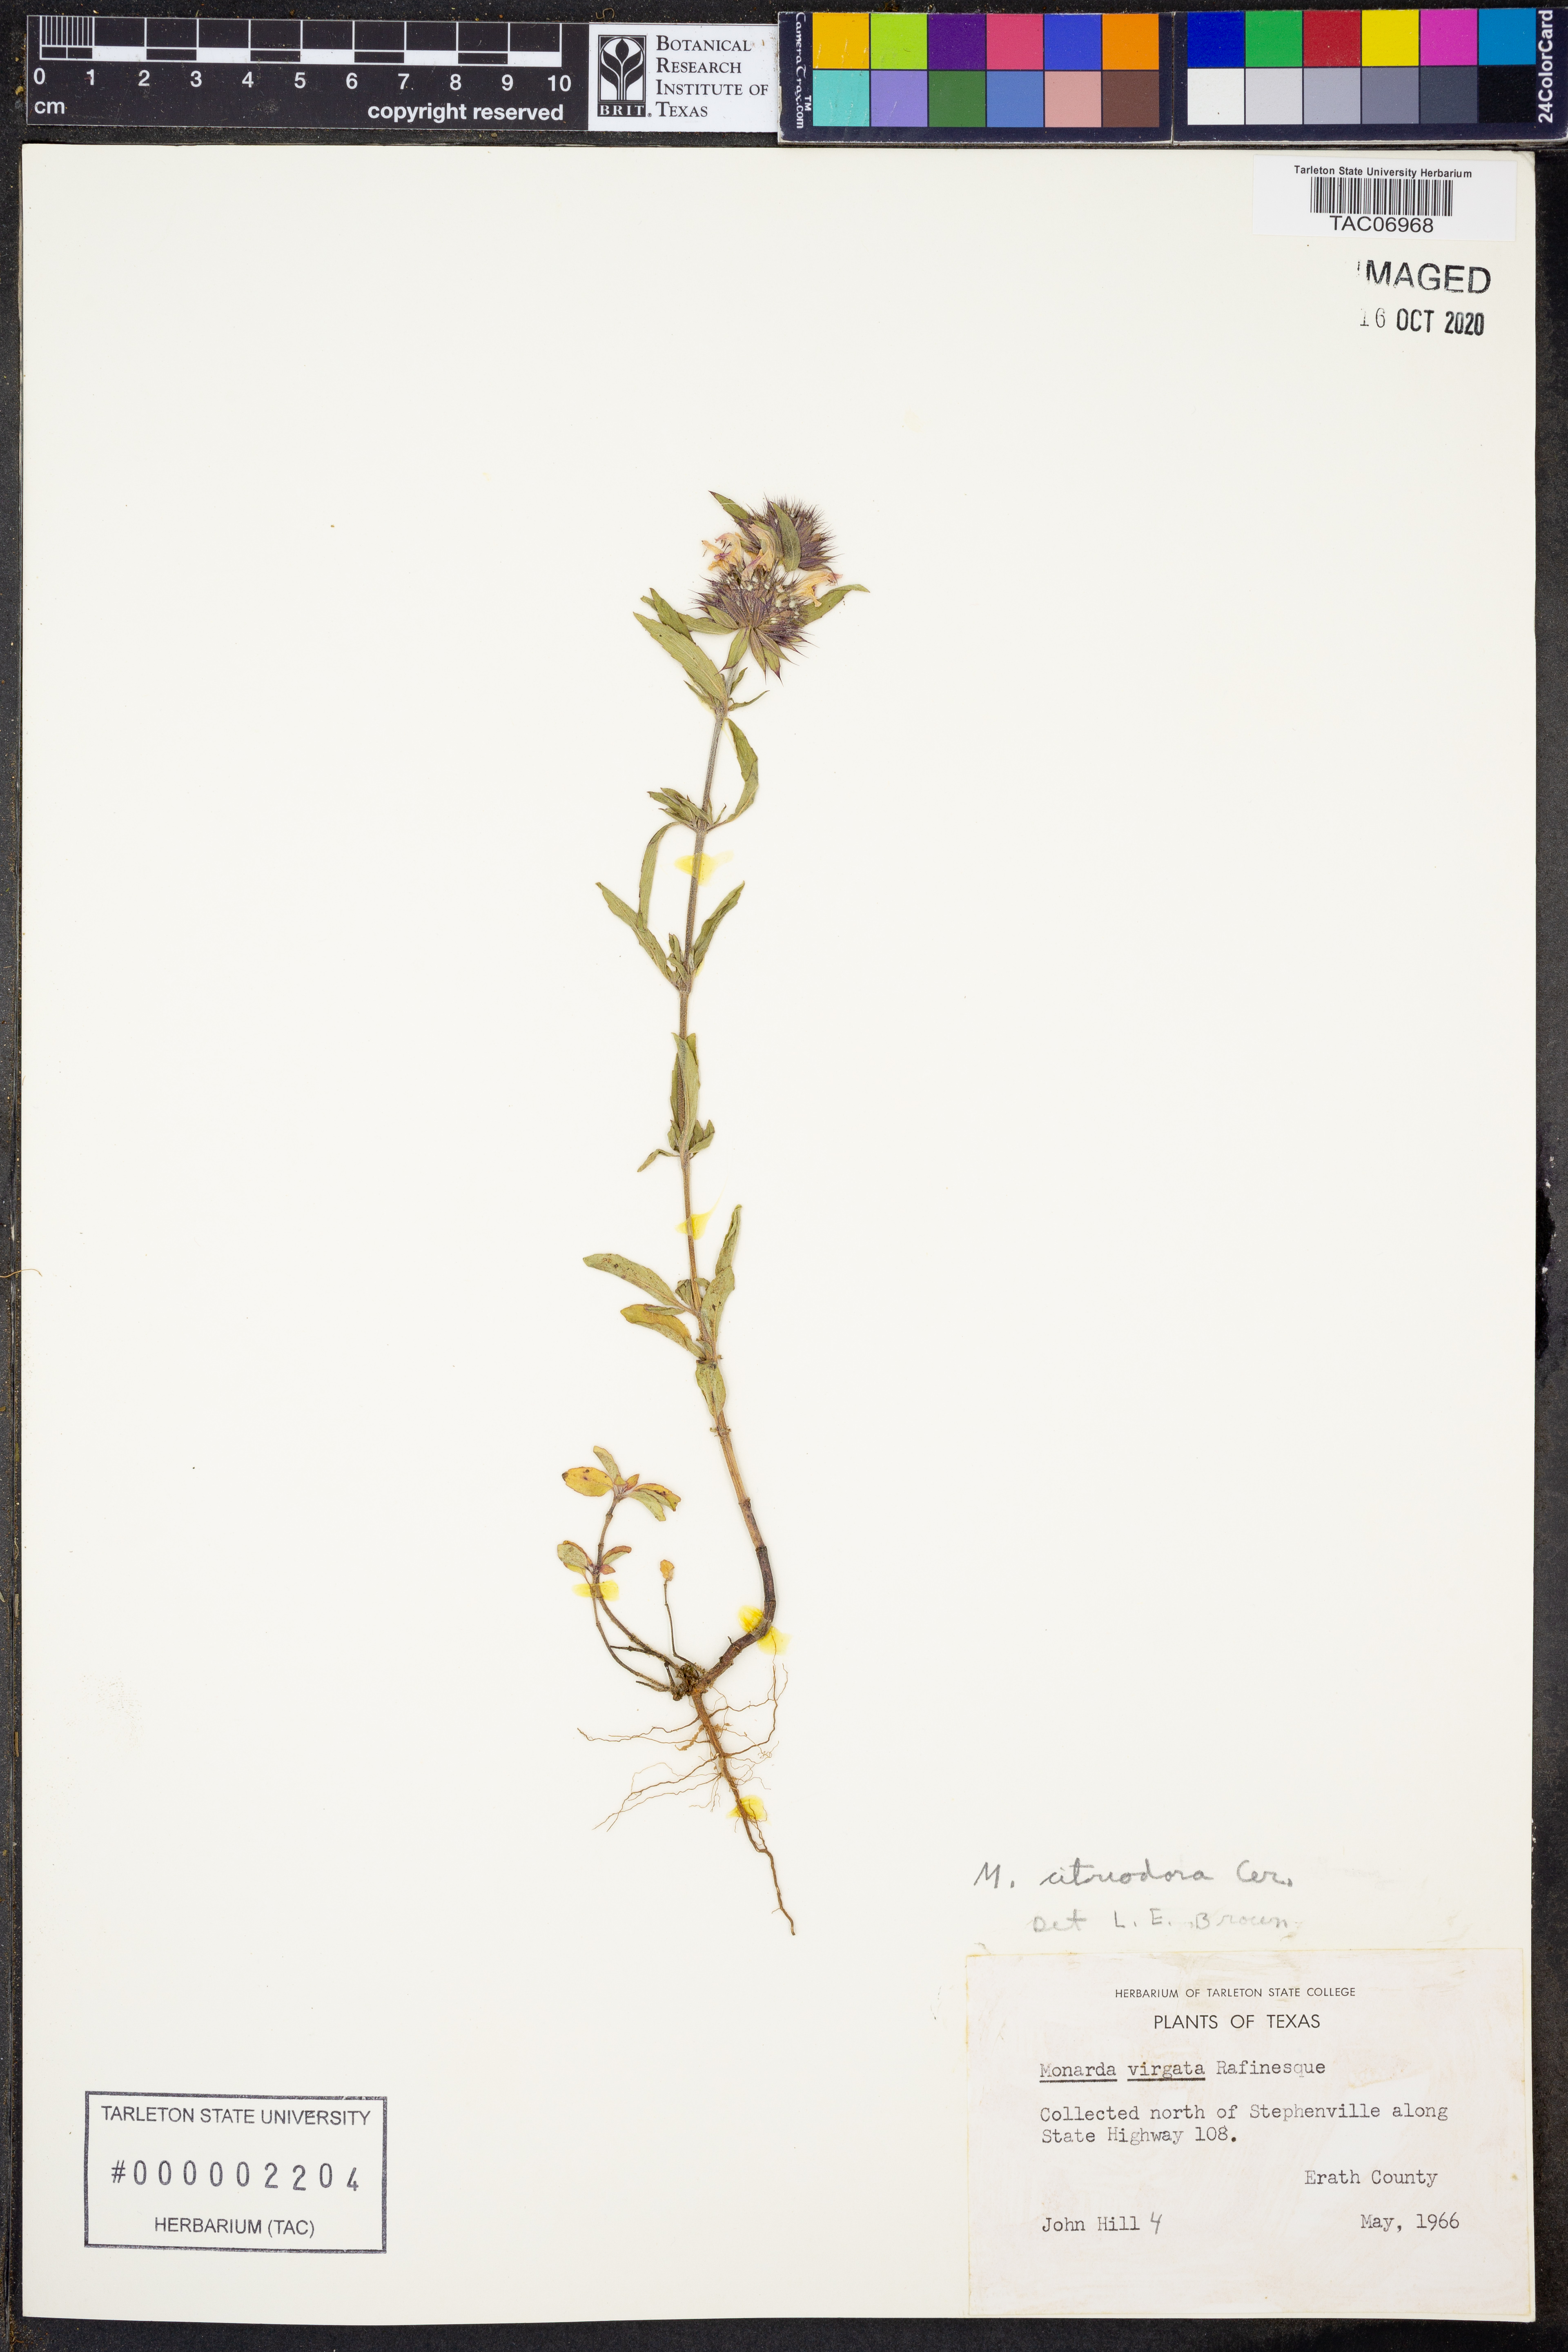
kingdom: Plantae
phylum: Tracheophyta
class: Magnoliopsida
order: Lamiales
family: Lamiaceae
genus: Monarda
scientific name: Monarda citriodora
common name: Lemon beebalm
